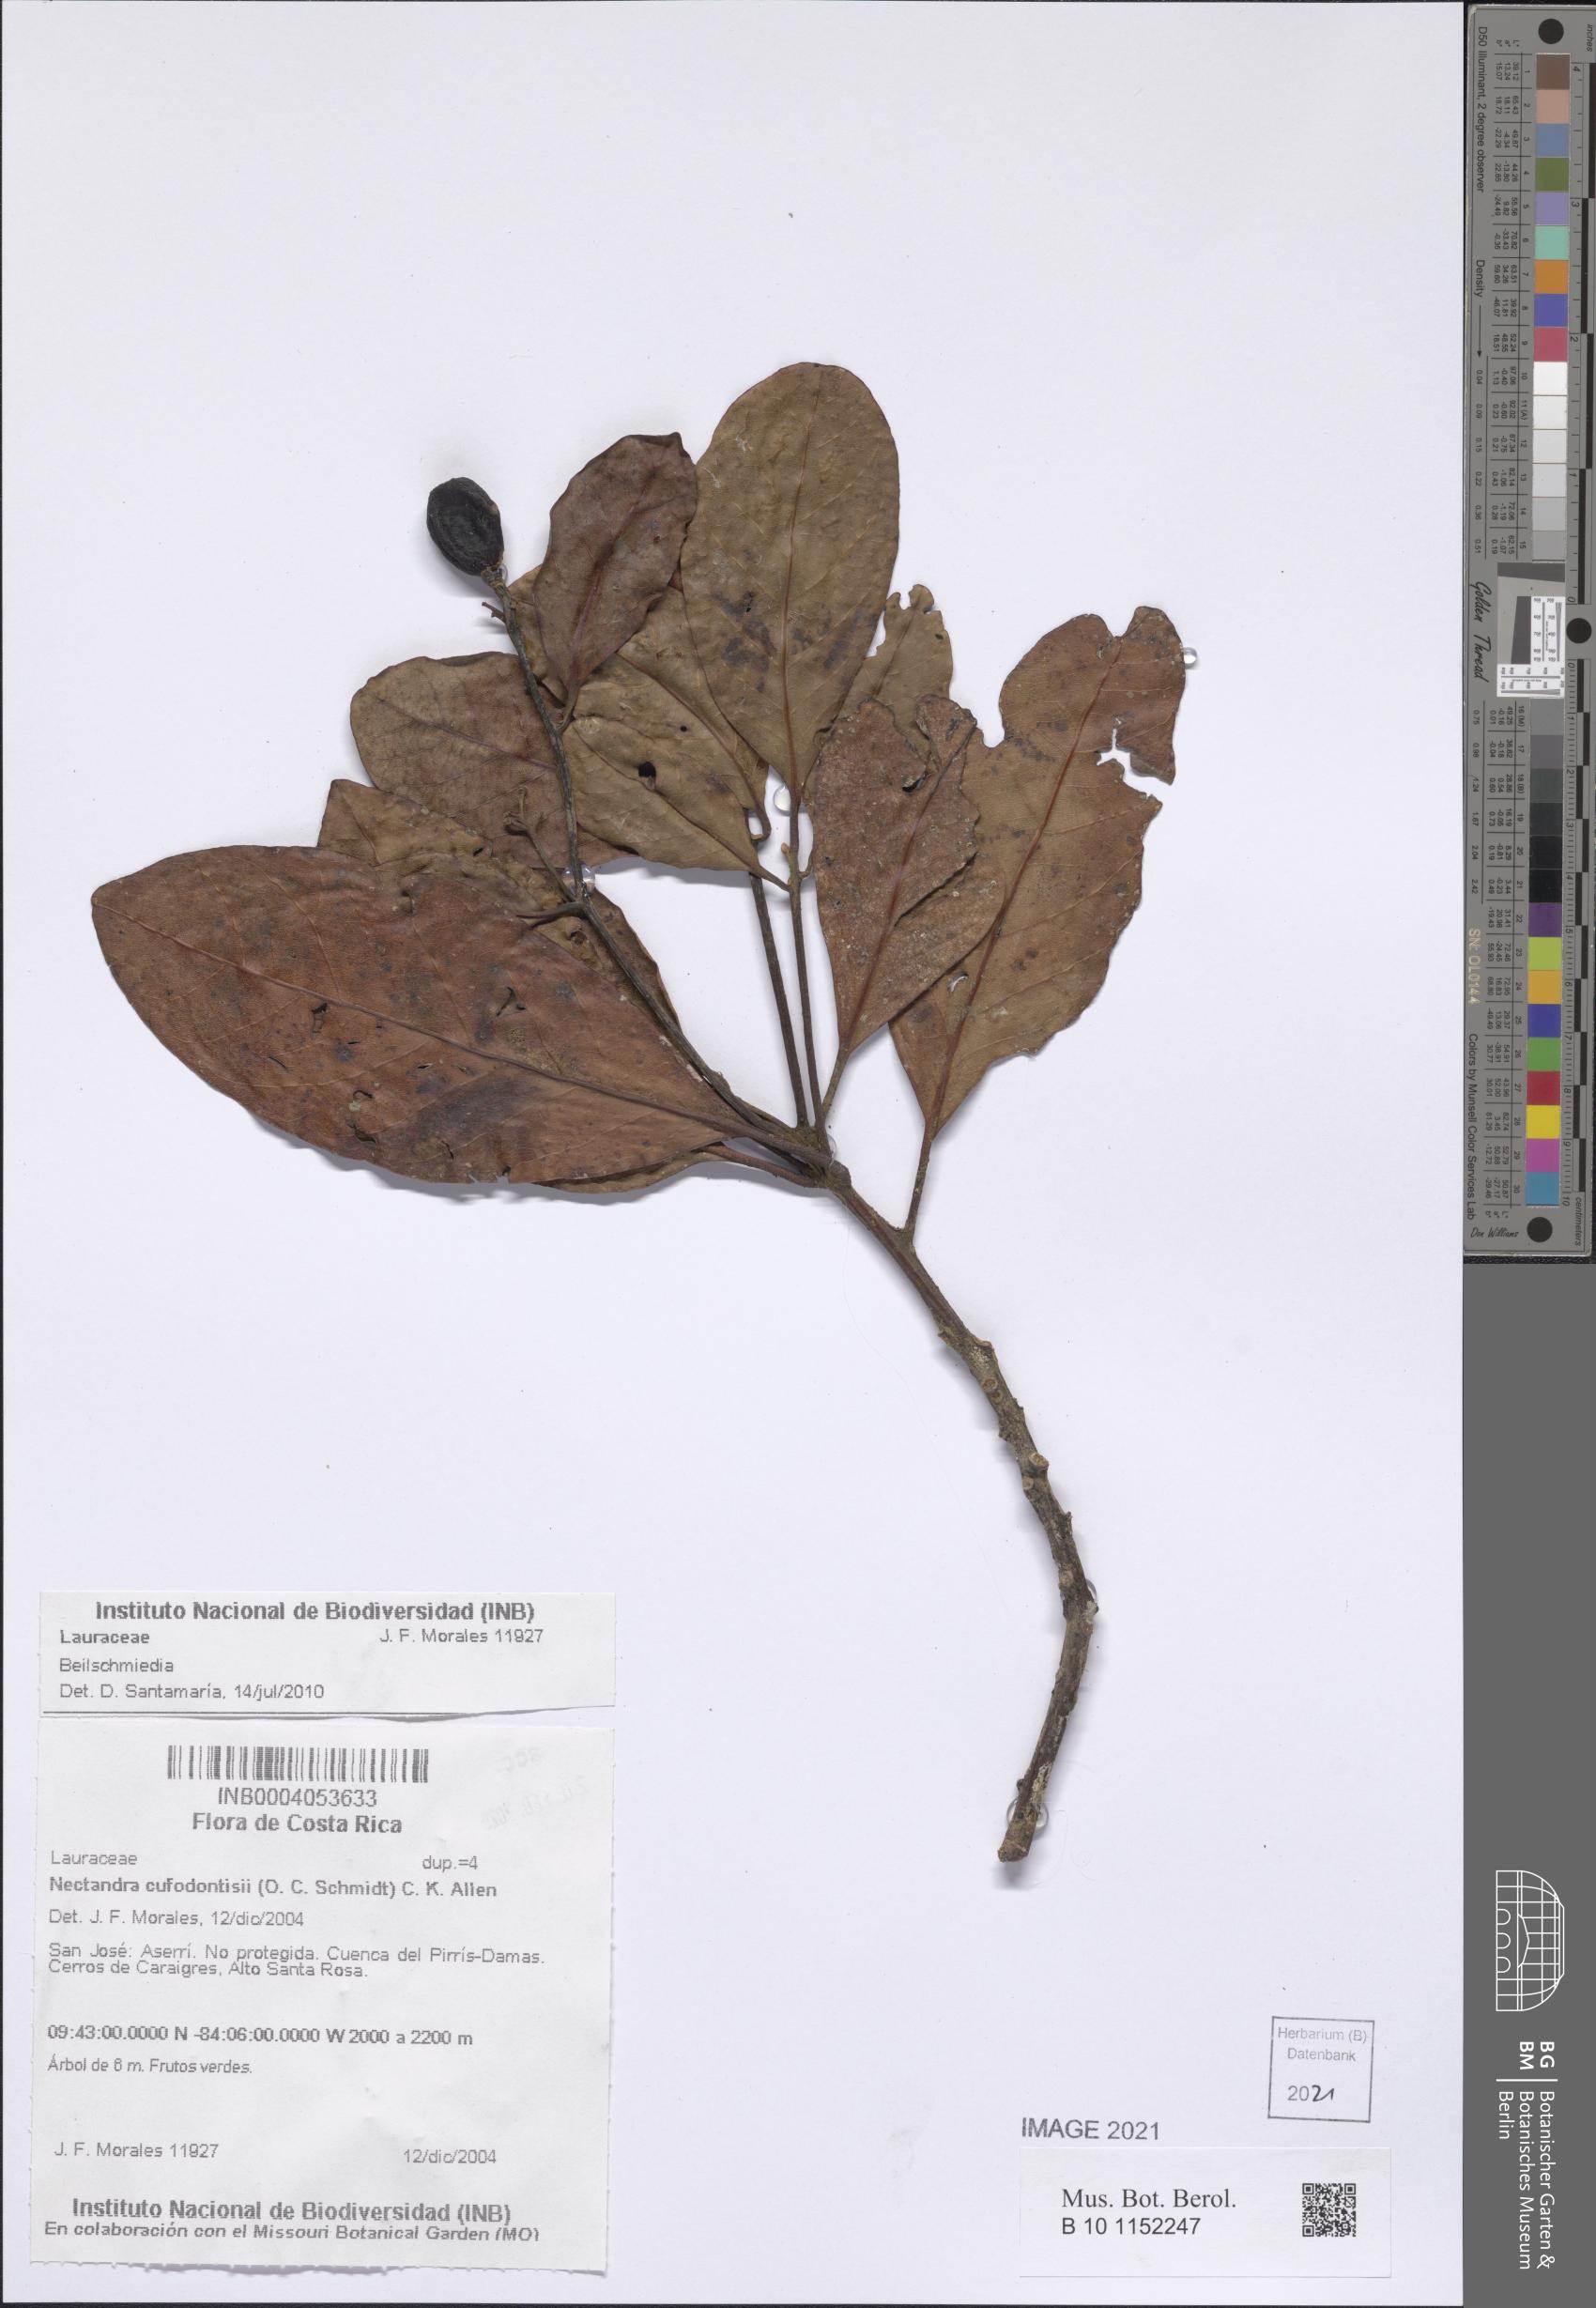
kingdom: Plantae
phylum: Tracheophyta
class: Magnoliopsida
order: Laurales
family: Lauraceae
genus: Beilschmiedia
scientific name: Beilschmiedia
